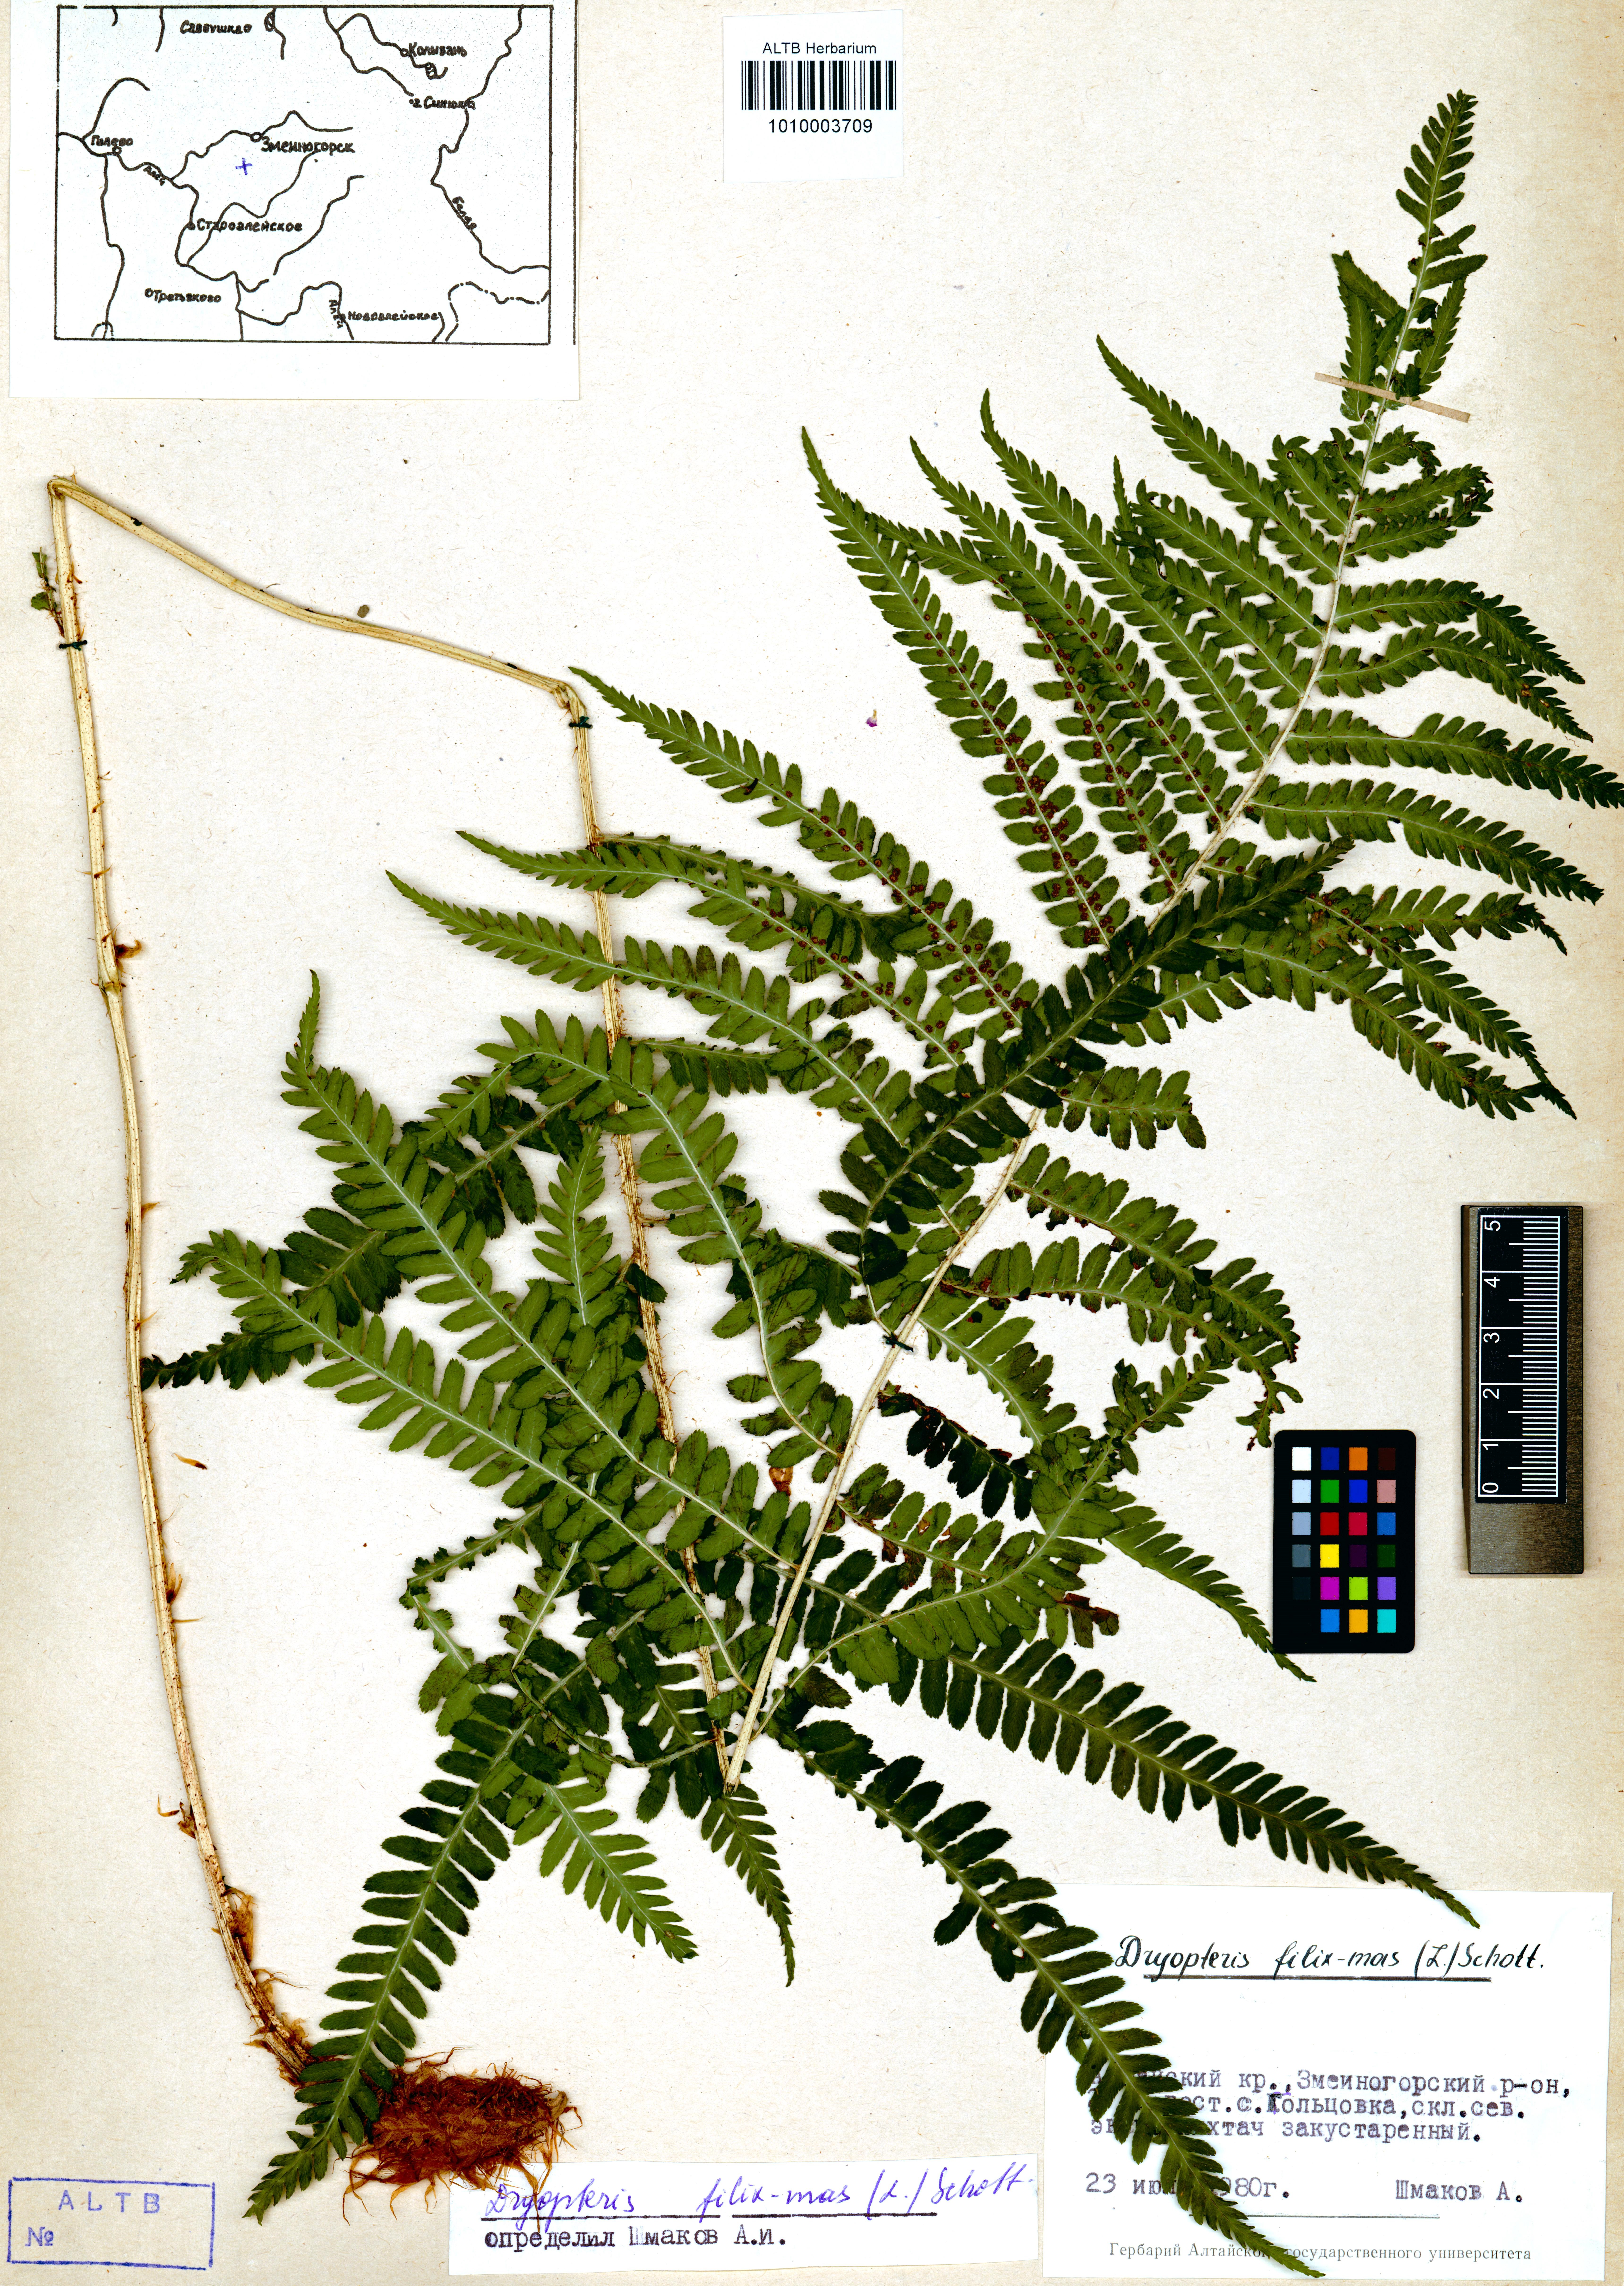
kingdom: Plantae
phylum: Tracheophyta
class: Polypodiopsida
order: Polypodiales
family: Dryopteridaceae
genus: Dryopteris
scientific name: Dryopteris filix-mas
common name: Male fern
